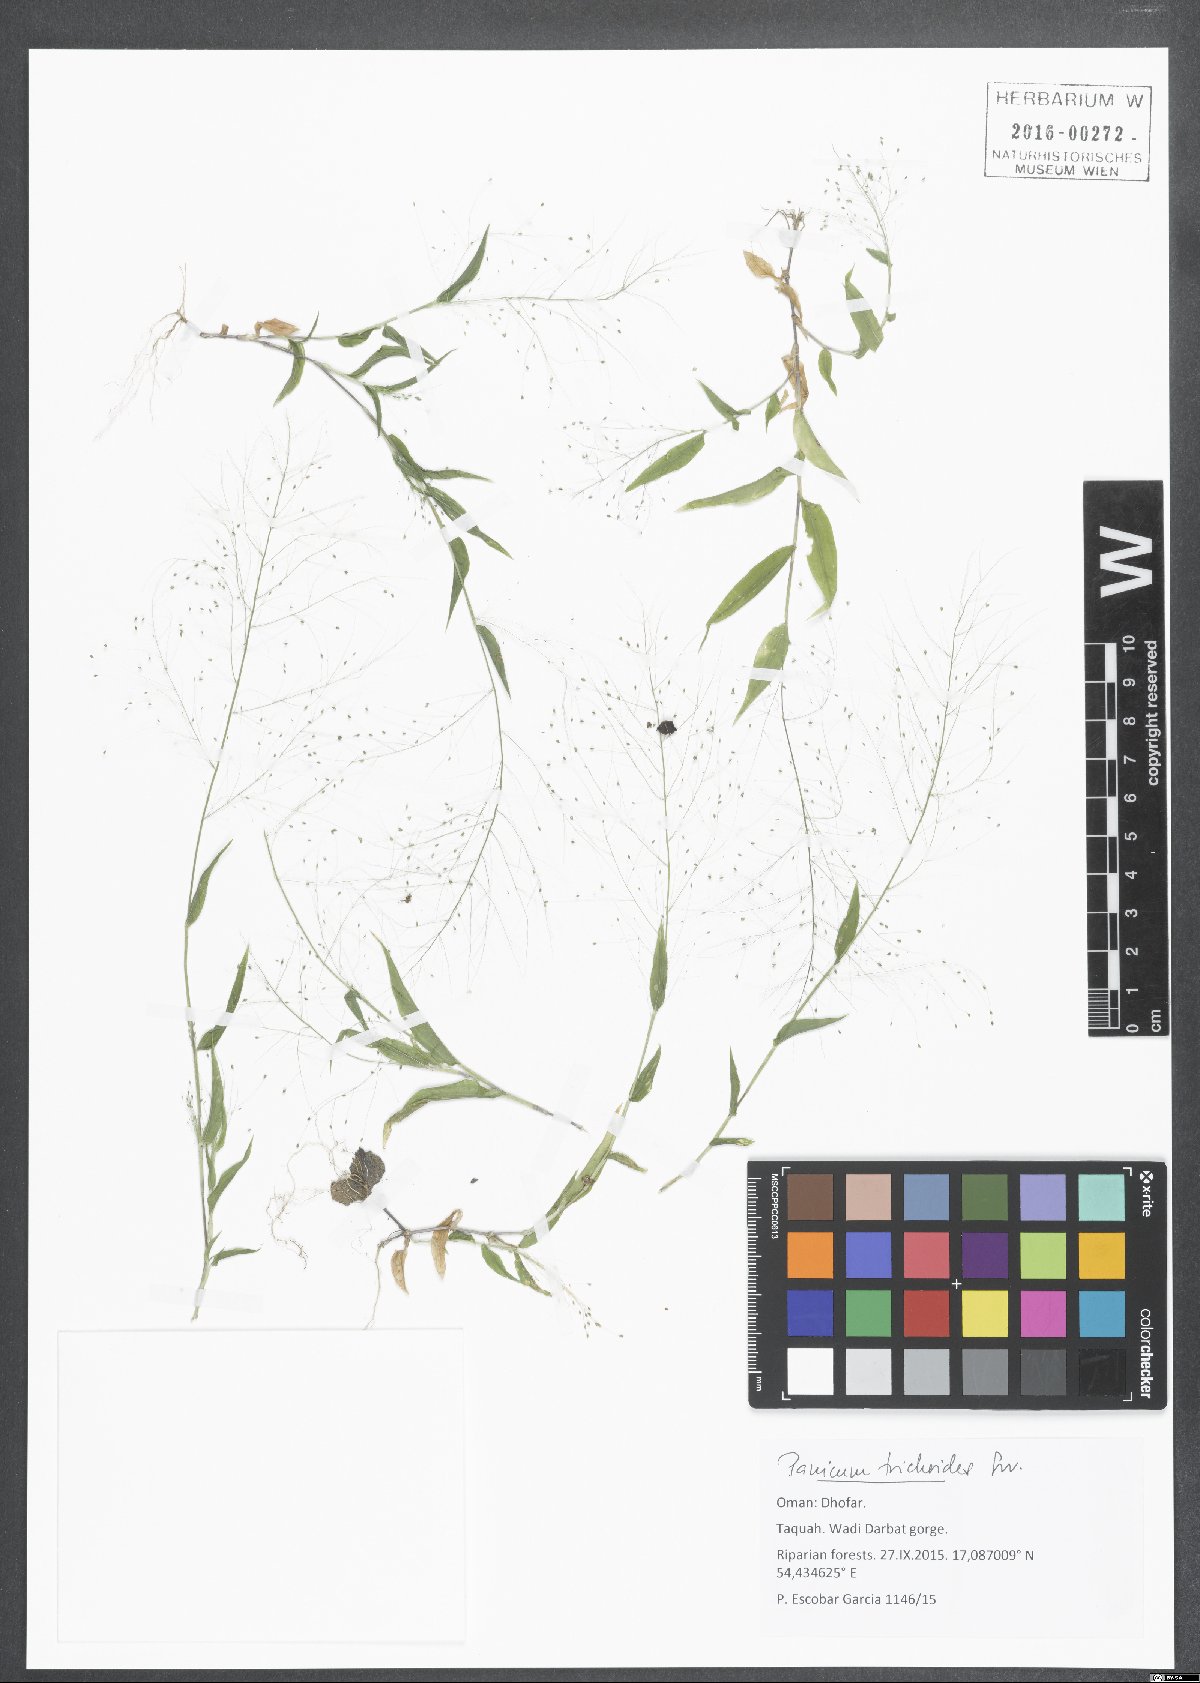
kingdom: Plantae
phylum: Tracheophyta
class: Liliopsida
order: Poales
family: Poaceae
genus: Panicum
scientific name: Panicum trichoides
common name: Tickle grass
